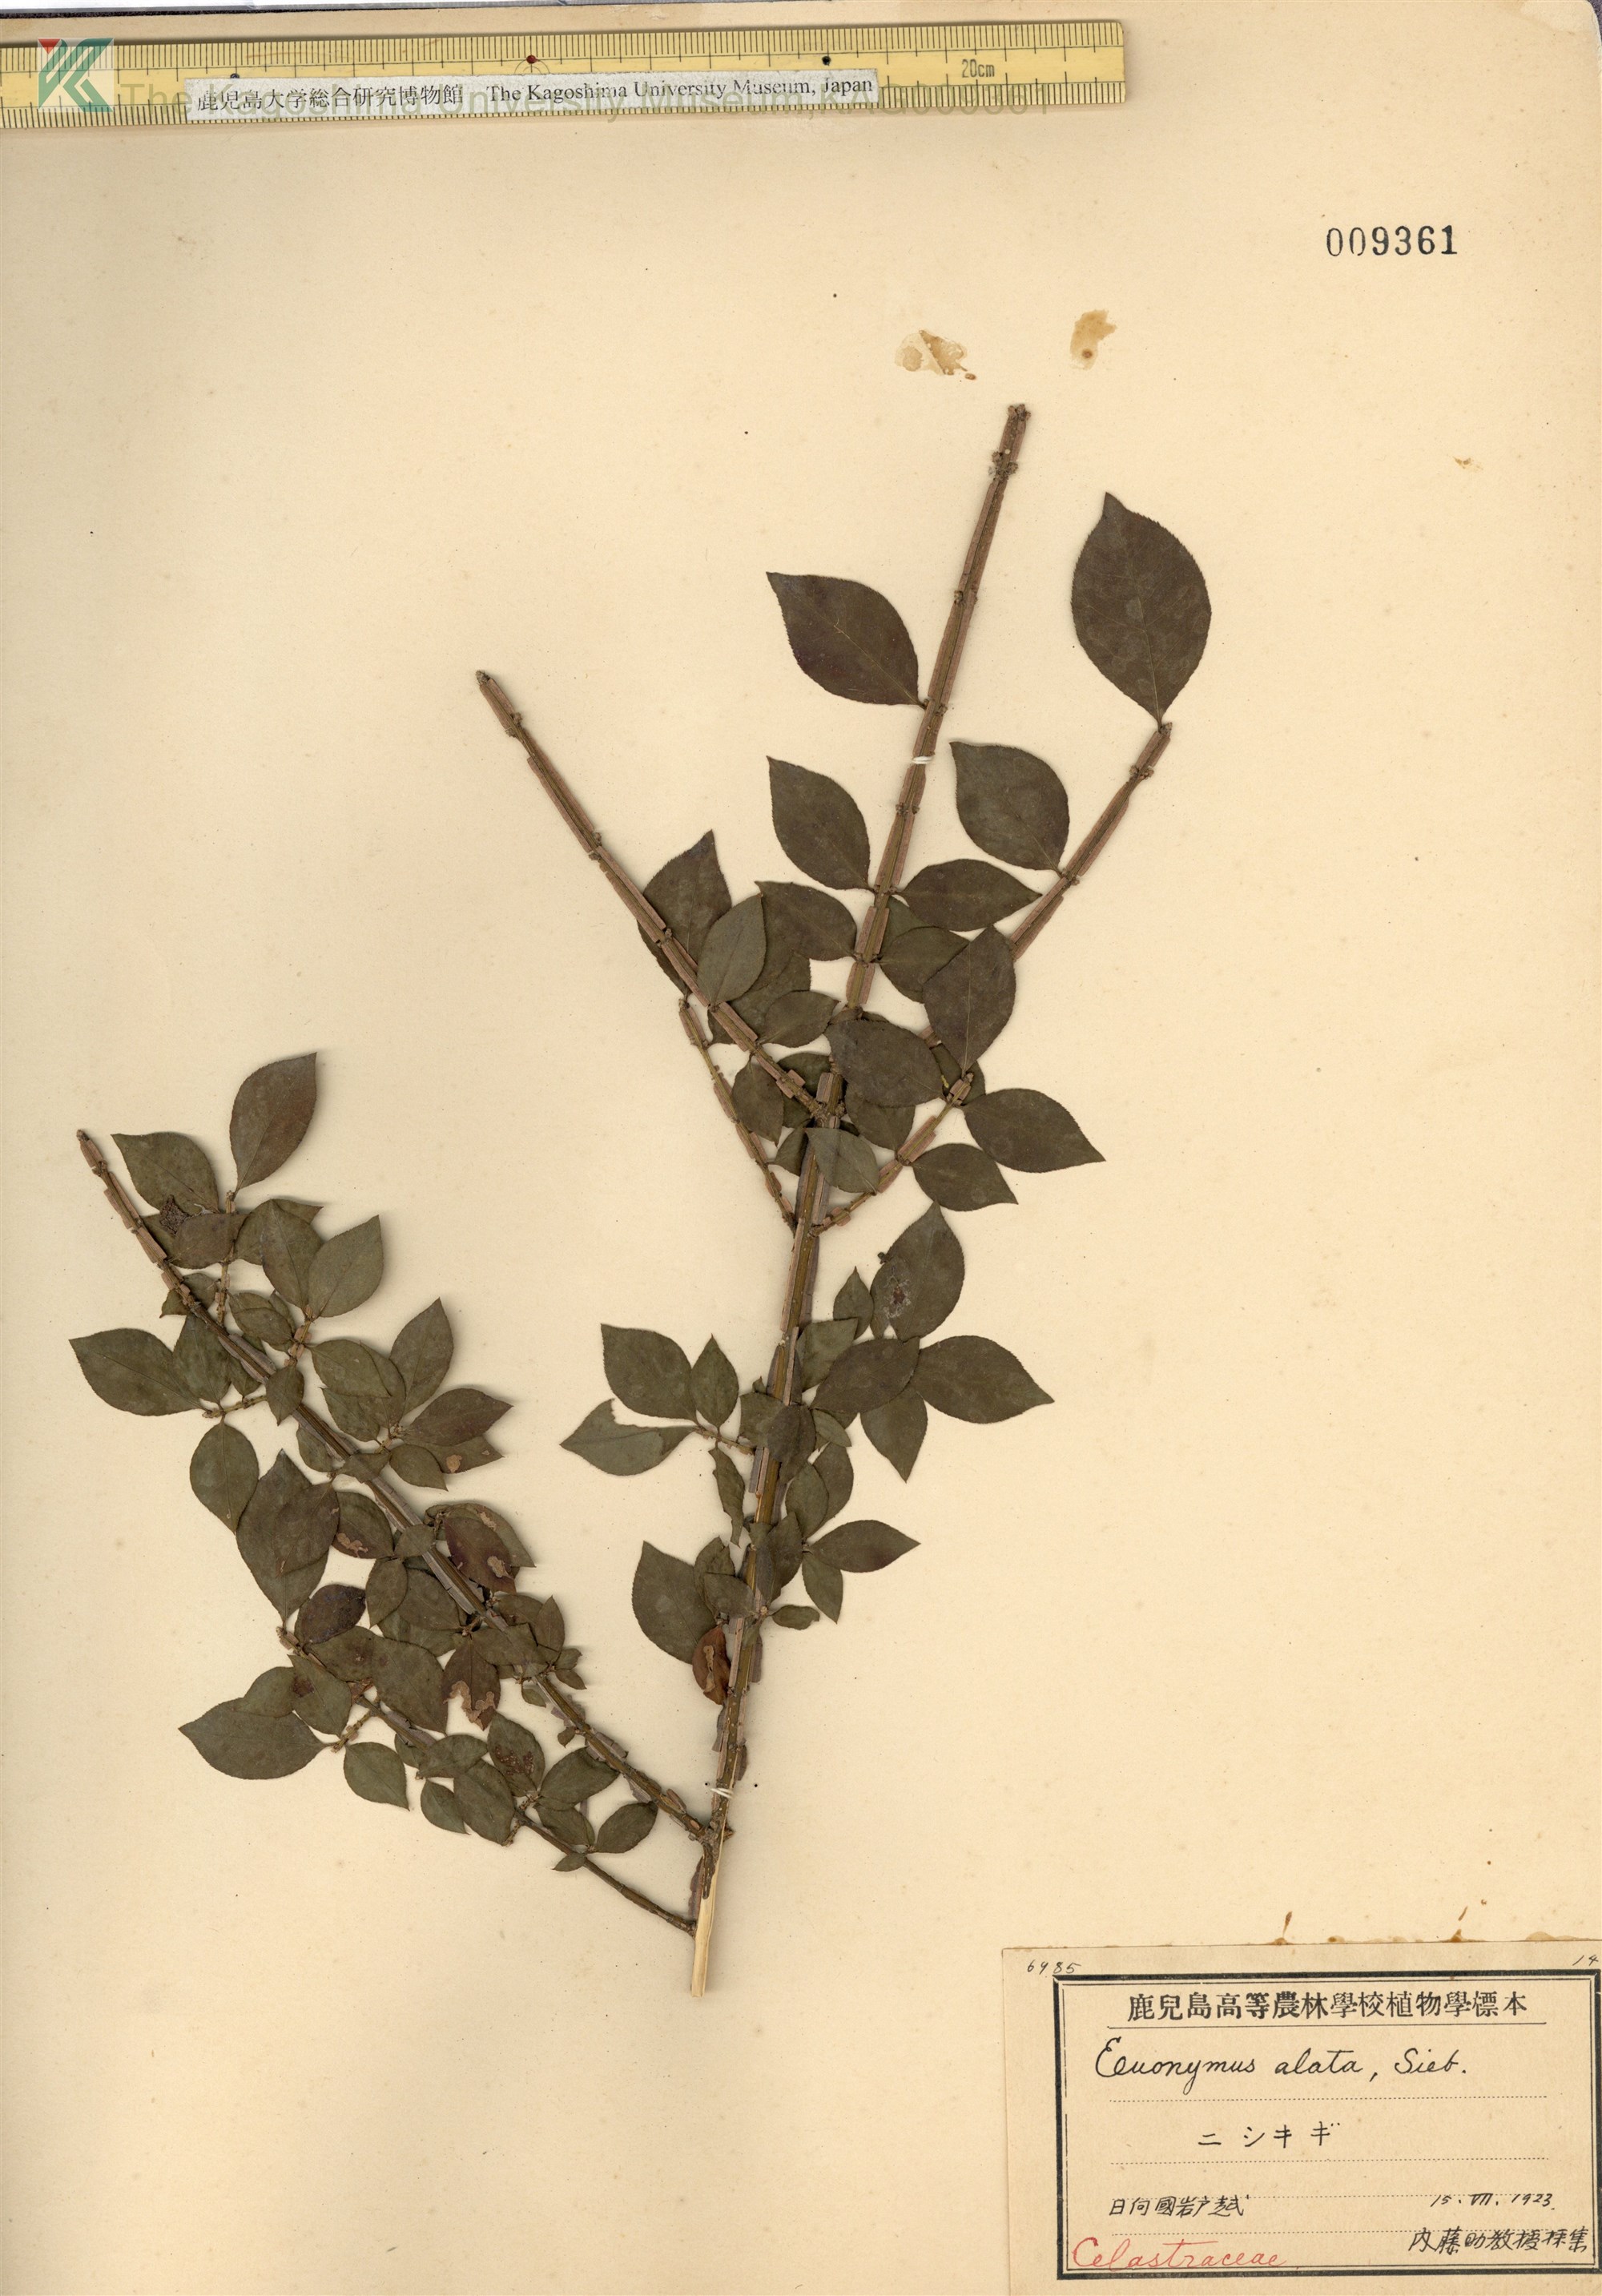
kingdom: Plantae
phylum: Tracheophyta
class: Magnoliopsida
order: Celastrales
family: Celastraceae
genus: Euonymus
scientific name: Euonymus alatus
